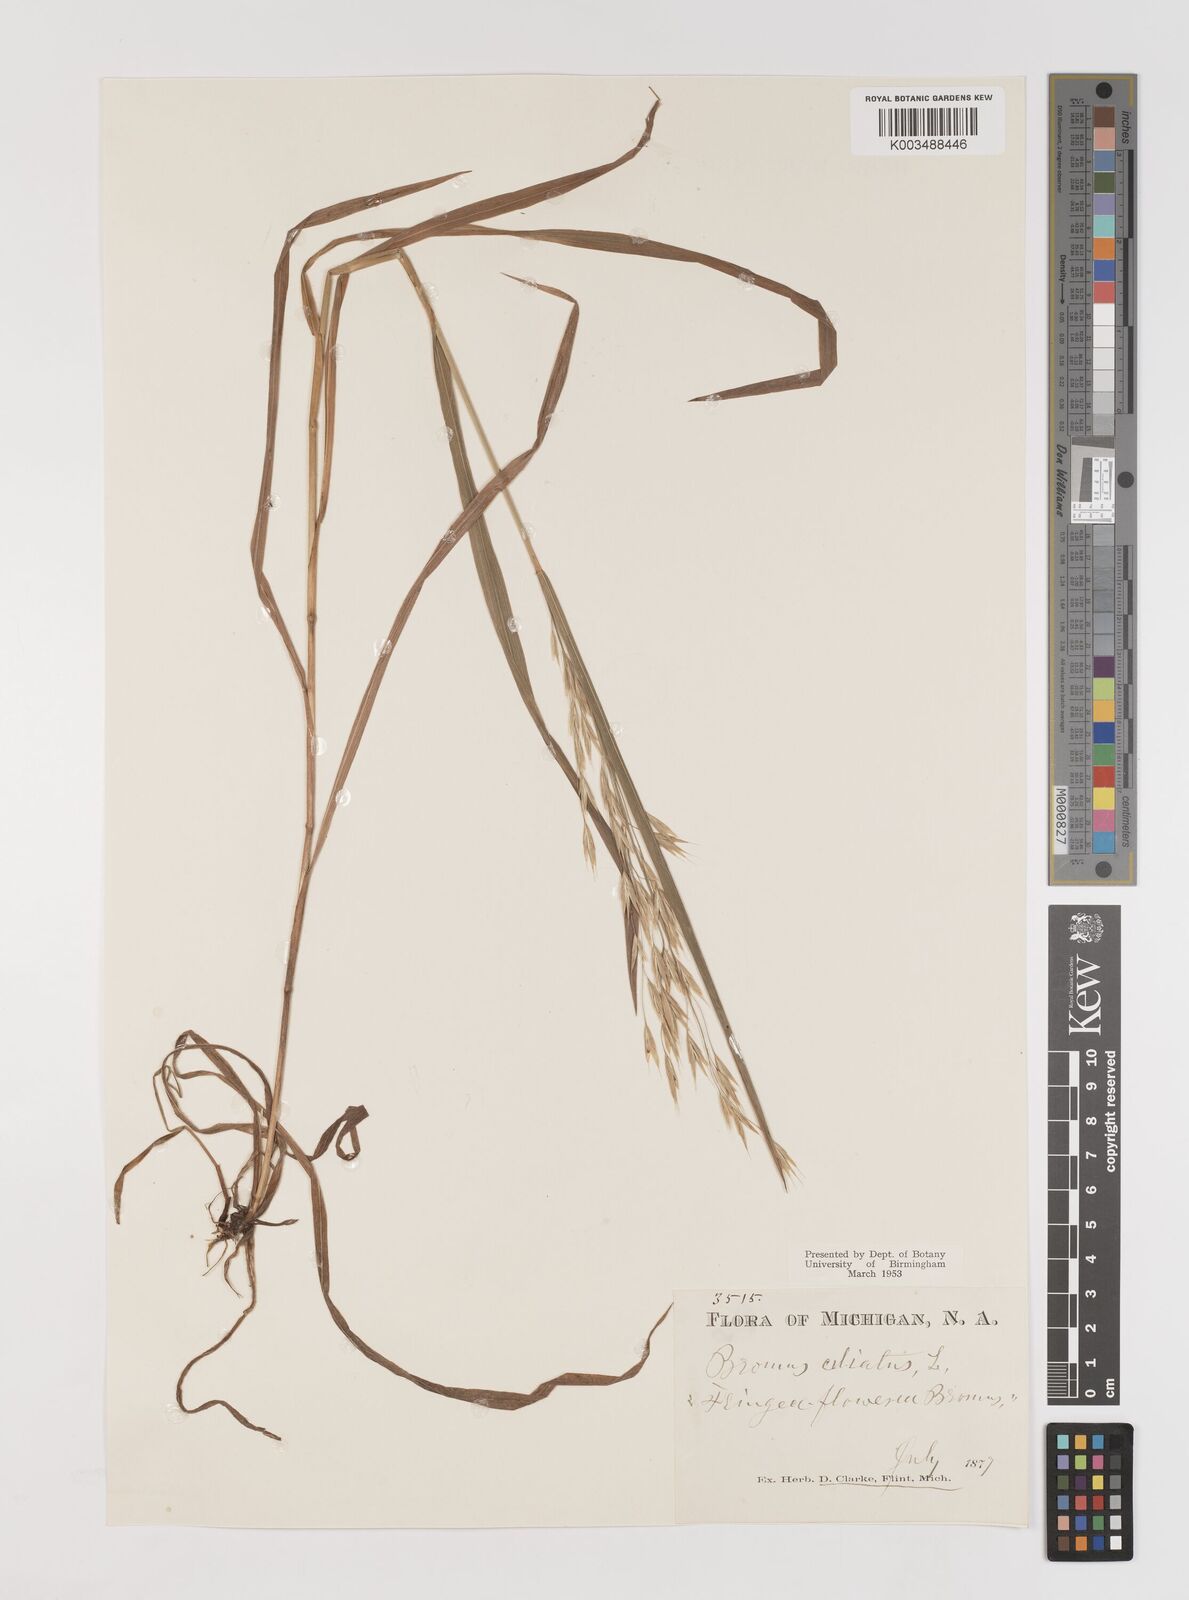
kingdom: Plantae
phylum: Tracheophyta
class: Liliopsida
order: Poales
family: Poaceae
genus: Bromus
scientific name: Bromus ciliatus
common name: Fringe brome
